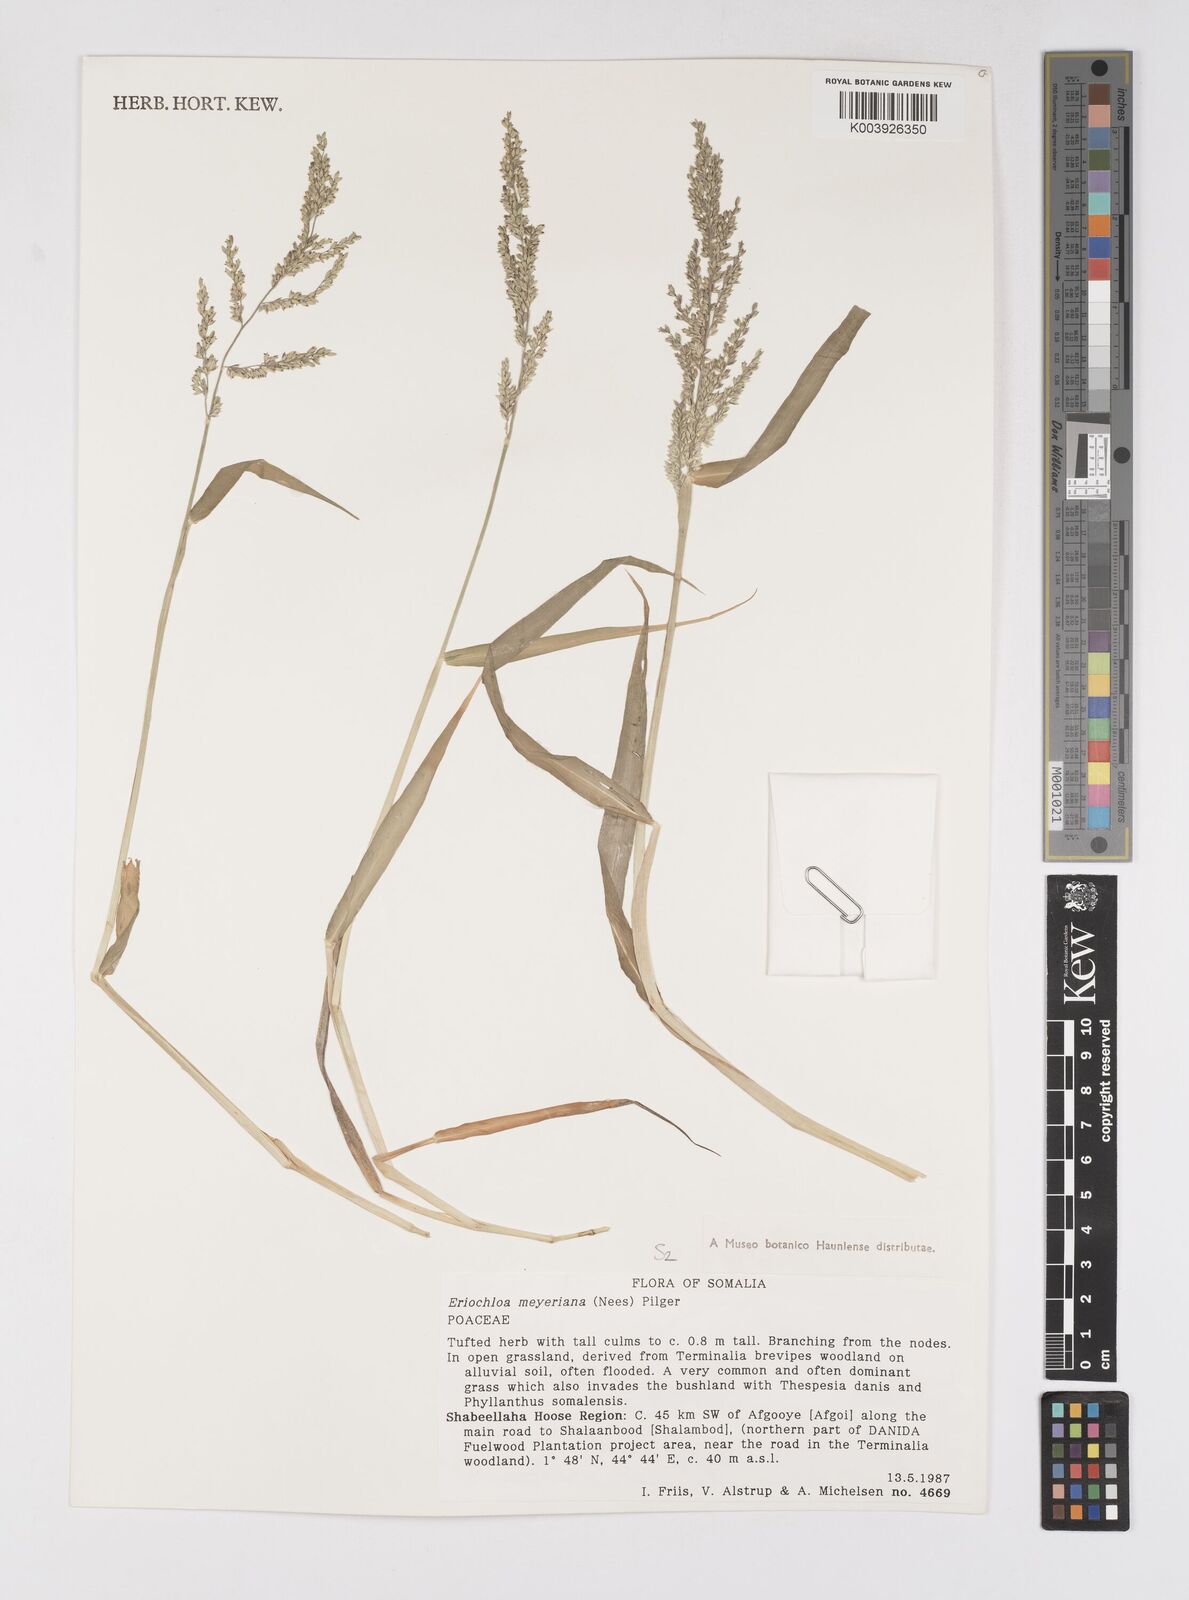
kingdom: Plantae
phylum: Tracheophyta
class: Liliopsida
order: Poales
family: Poaceae
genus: Eriochloa
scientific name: Eriochloa meyeriana
